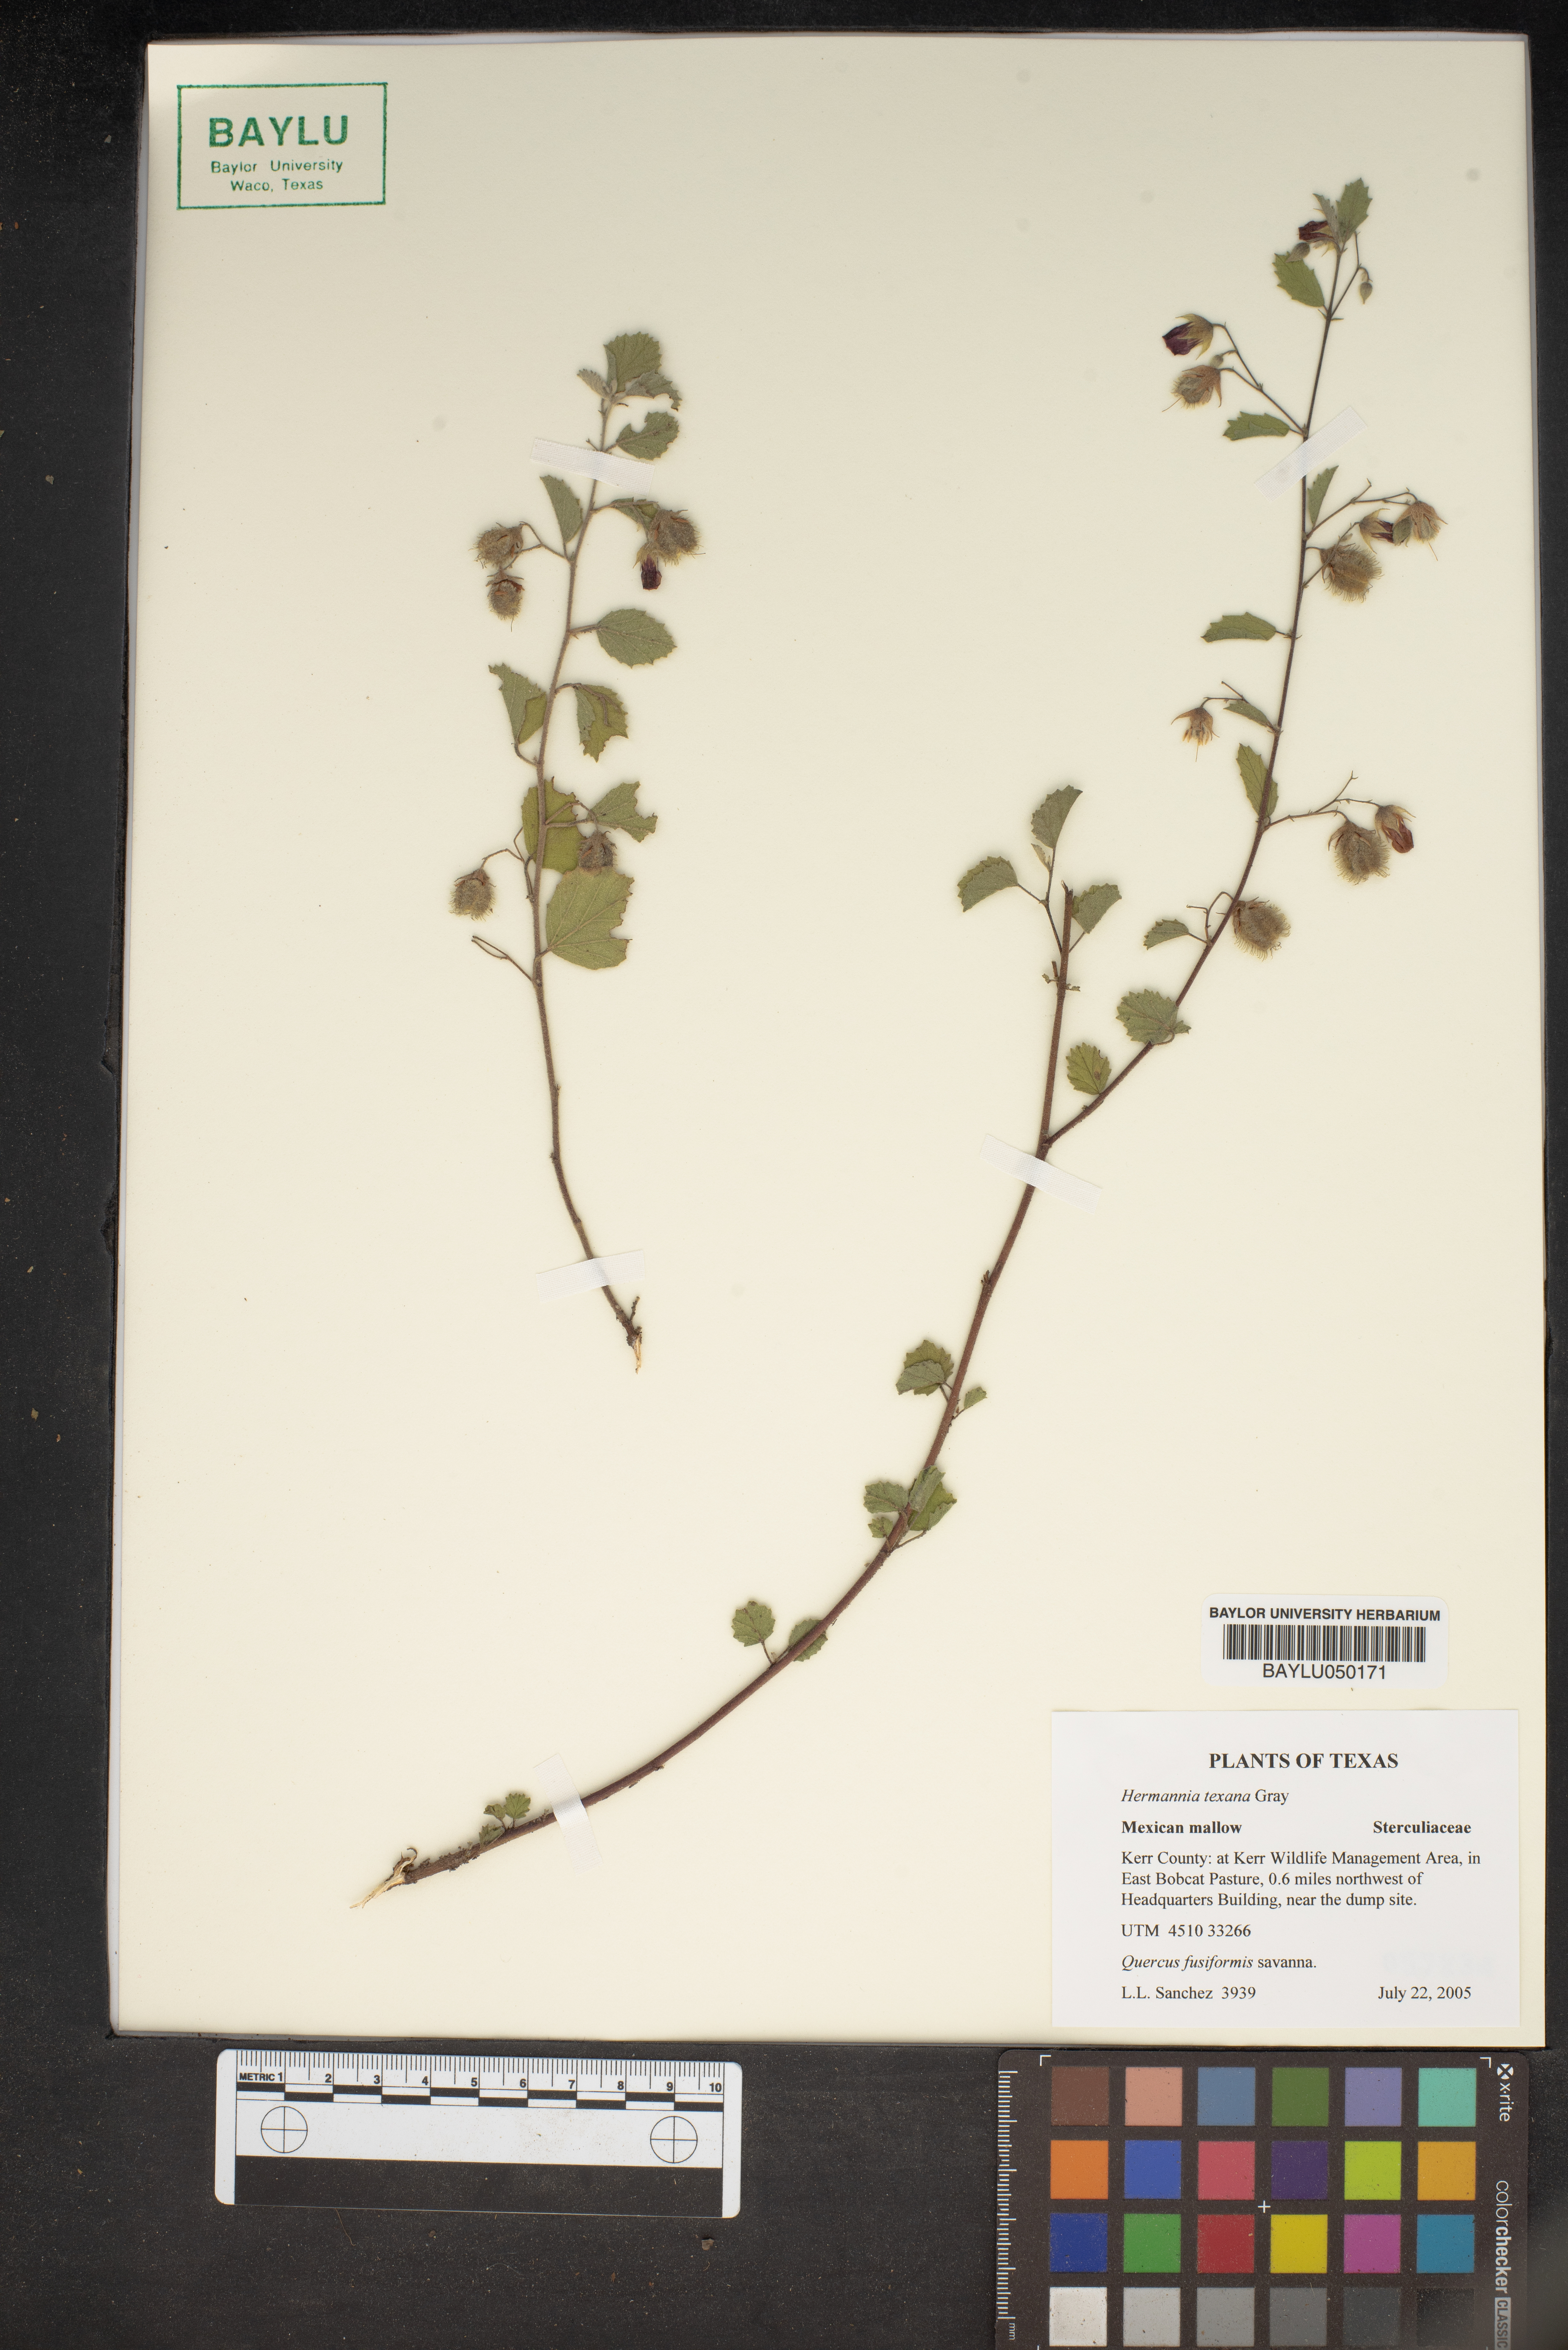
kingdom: Plantae
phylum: Tracheophyta
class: Magnoliopsida
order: Malvales
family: Malvaceae
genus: Hermannia
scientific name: Hermannia texana
